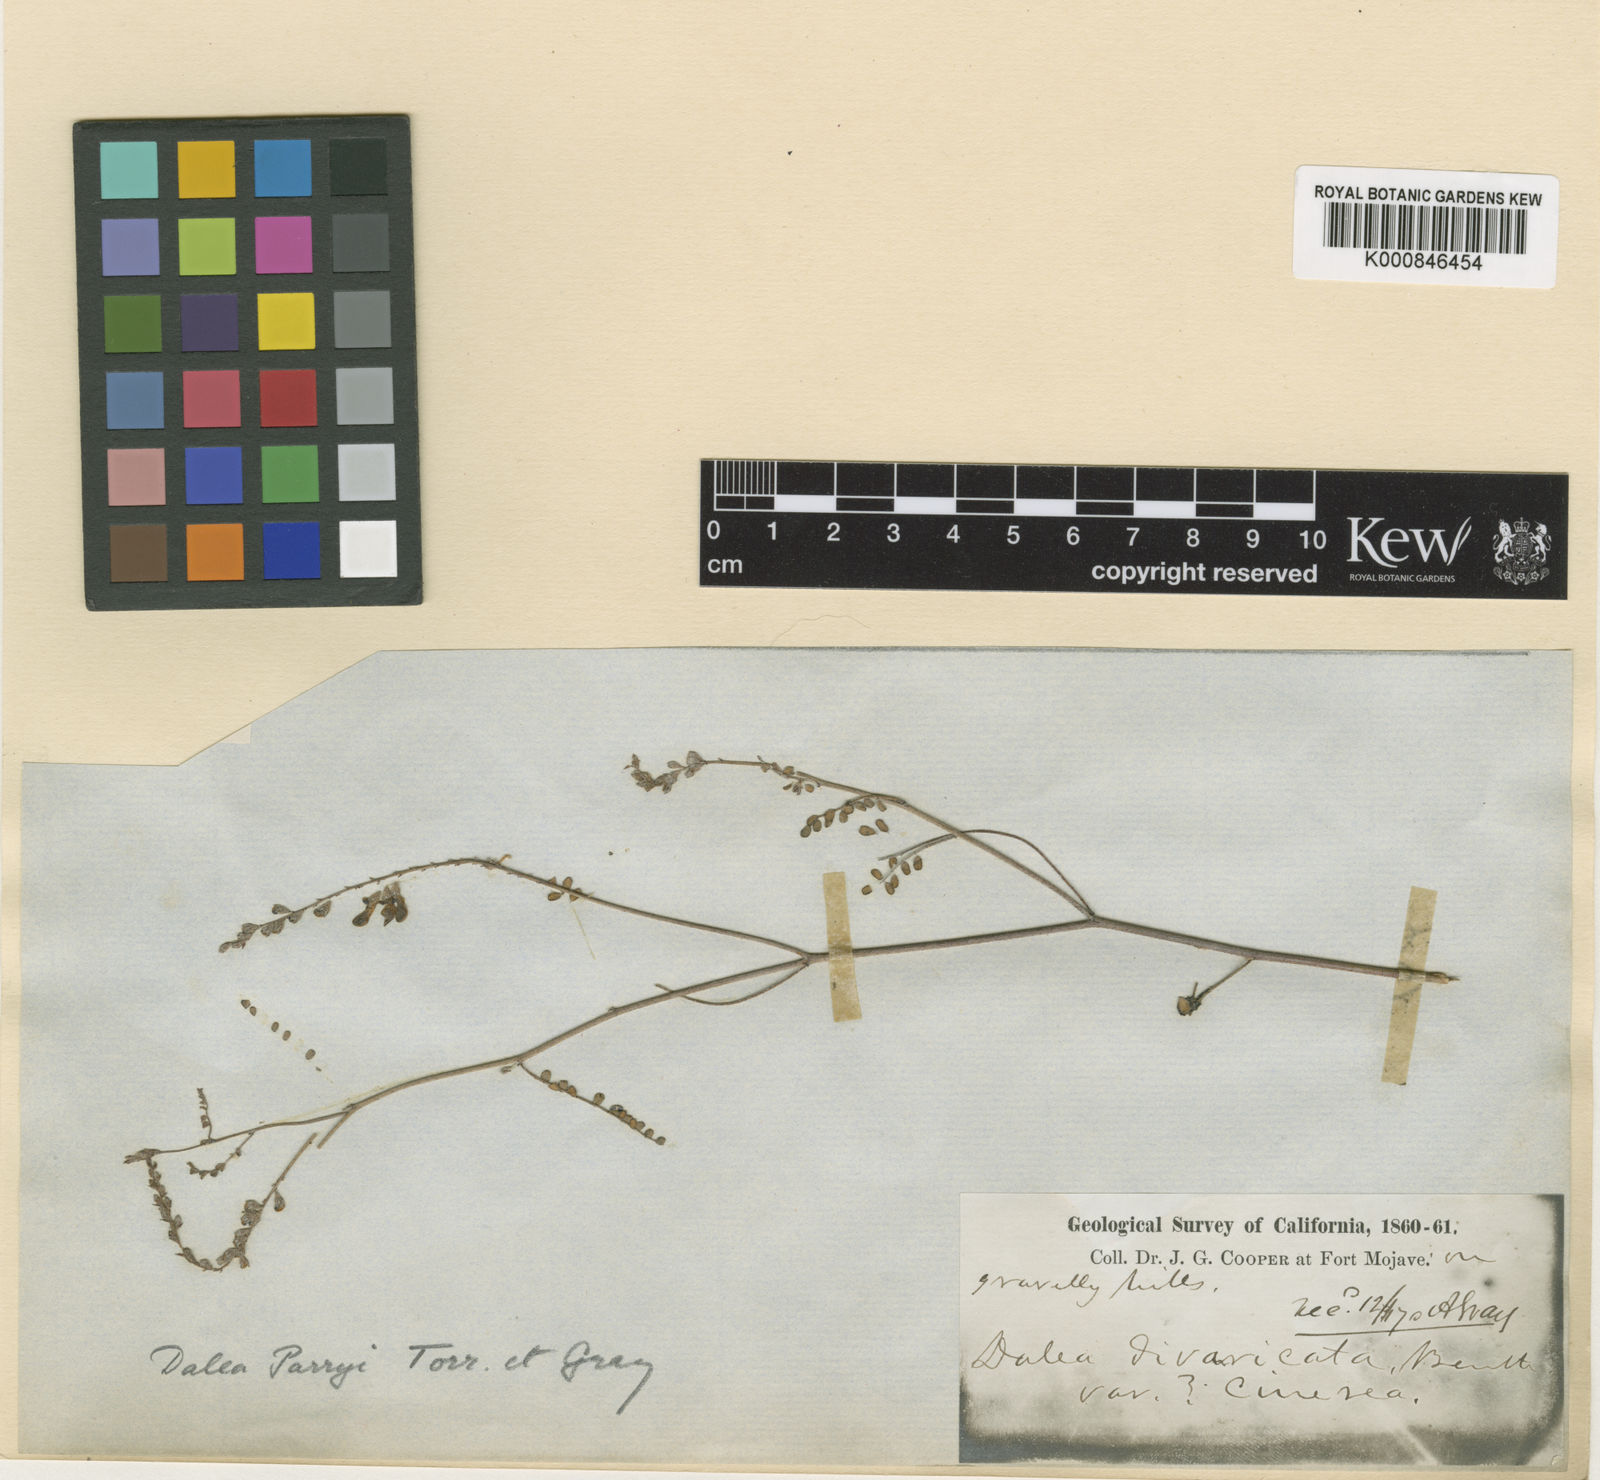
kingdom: Plantae
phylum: Tracheophyta
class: Magnoliopsida
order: Fabales
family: Fabaceae
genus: Marina
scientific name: Marina parryi
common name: Parry's marina
